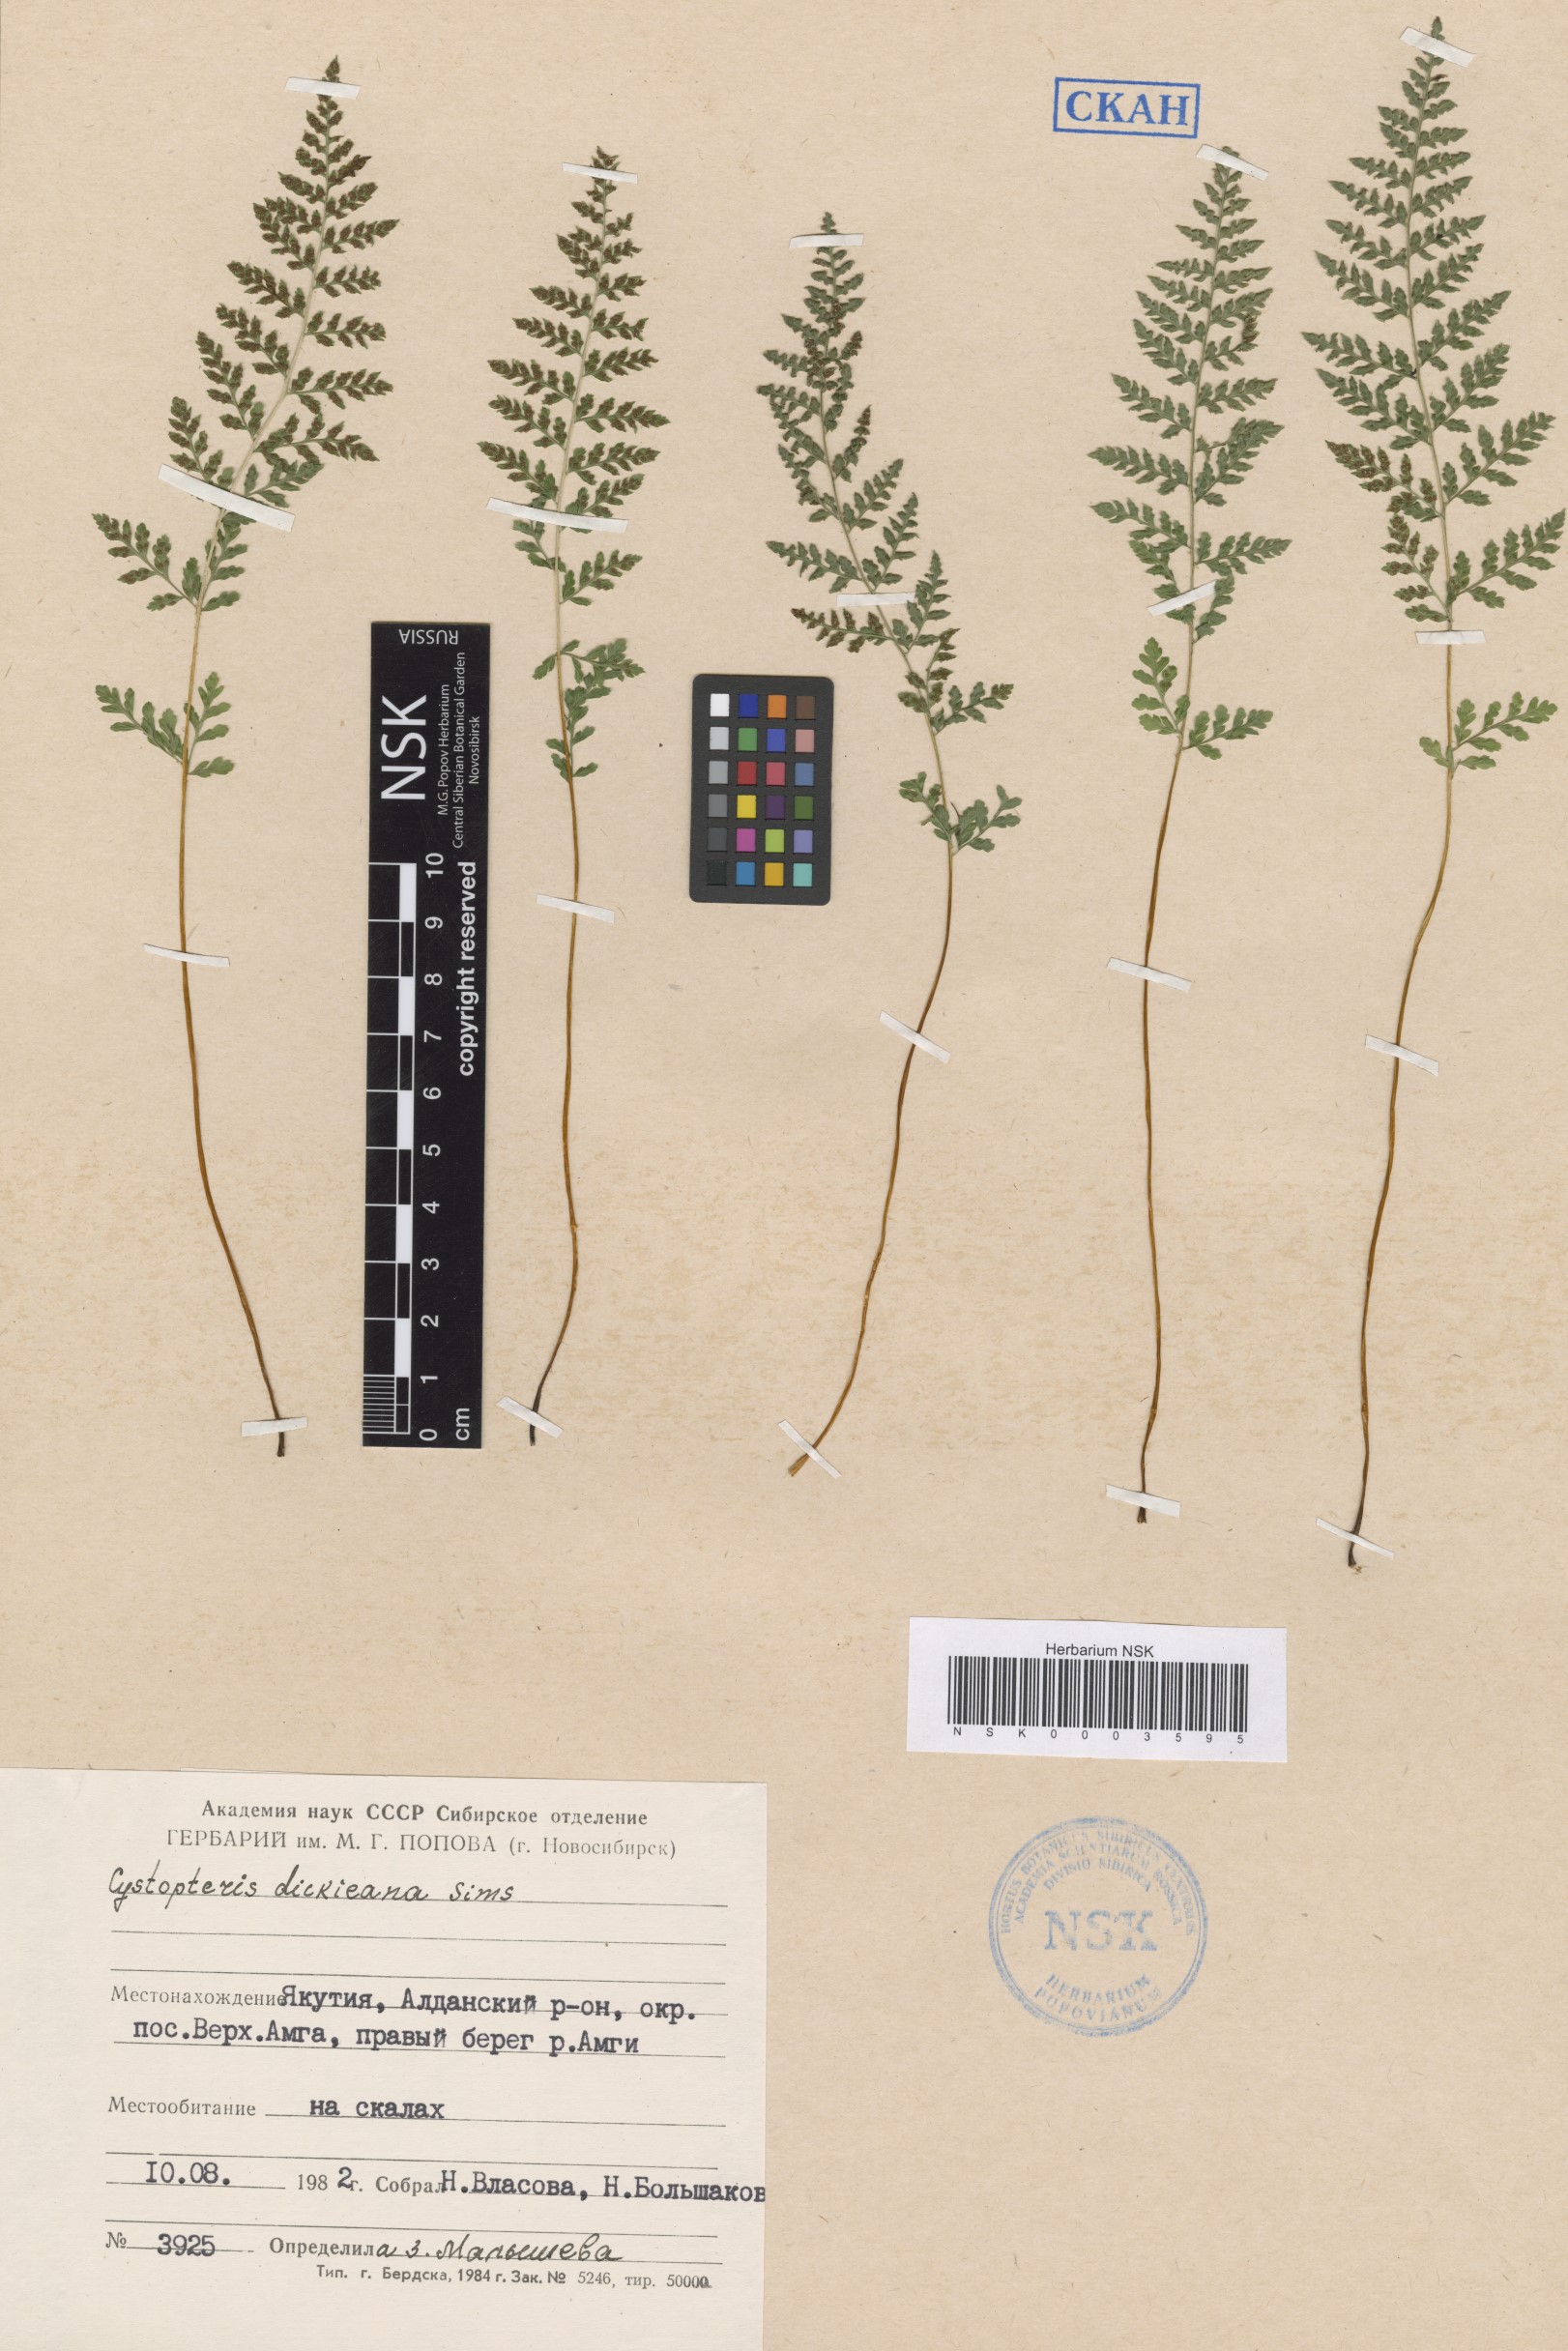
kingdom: Plantae
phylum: Tracheophyta
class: Polypodiopsida
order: Polypodiales
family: Cystopteridaceae
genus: Cystopteris
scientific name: Cystopteris dickieana
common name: Dickie's bladder-fern
